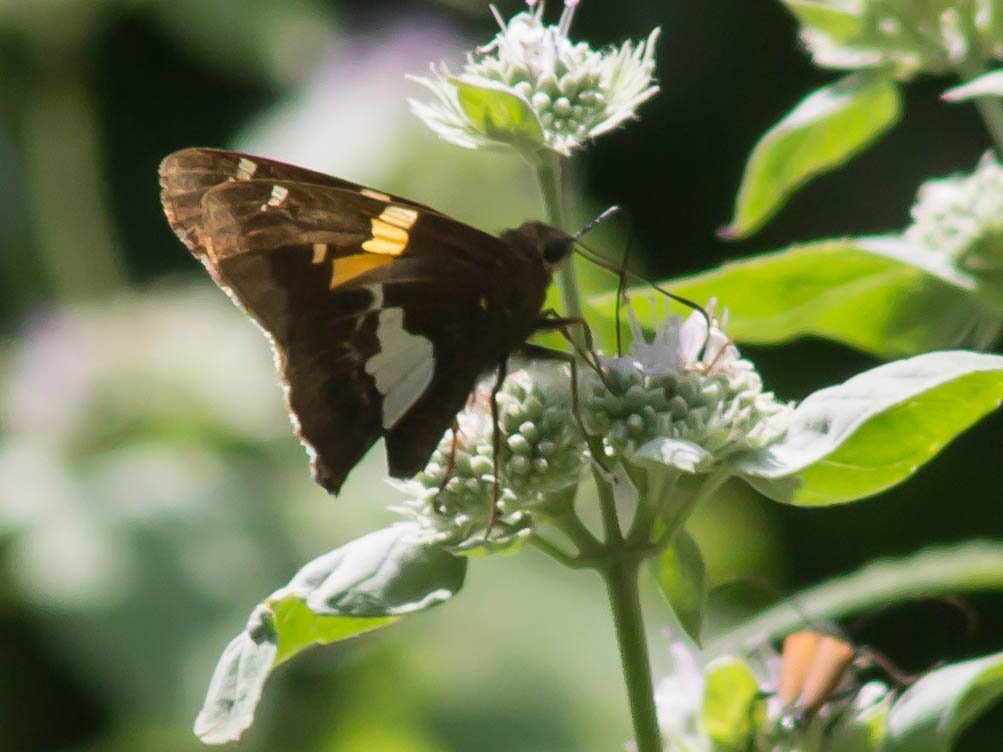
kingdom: Animalia
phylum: Arthropoda
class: Insecta
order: Lepidoptera
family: Hesperiidae
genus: Epargyreus
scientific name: Epargyreus clarus
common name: Silver-spotted Skipper
